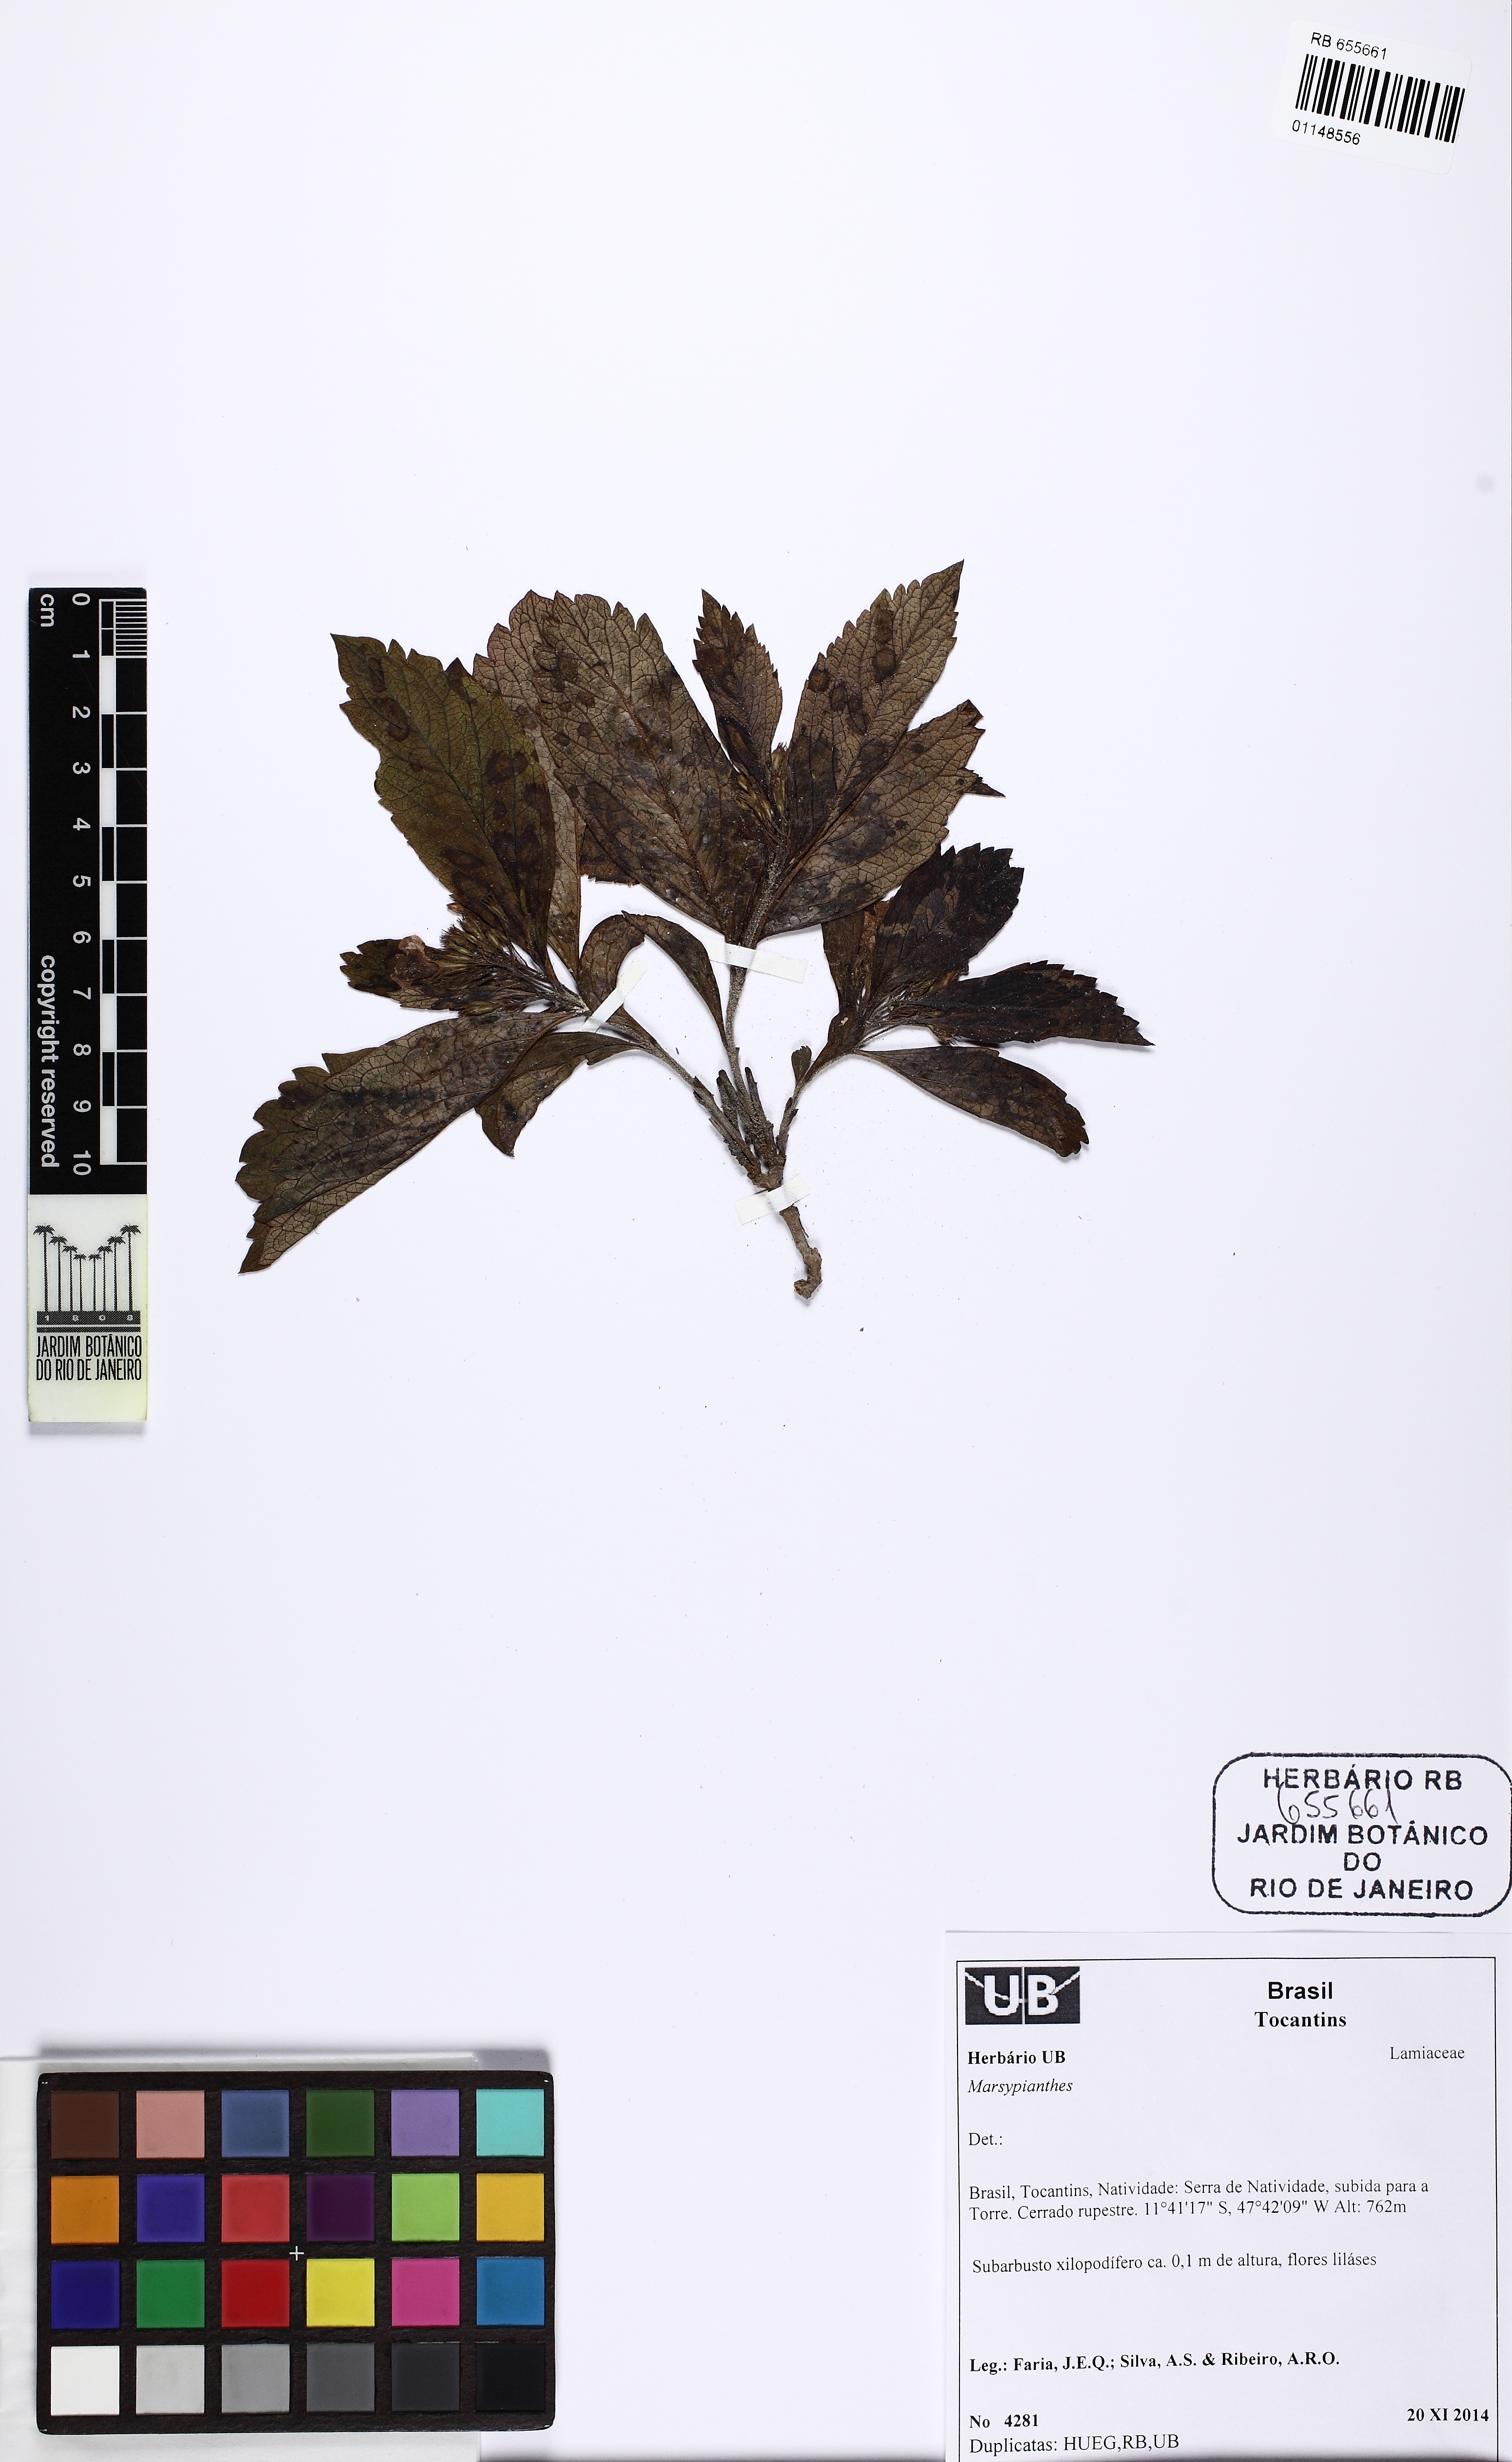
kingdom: Plantae
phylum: Tracheophyta
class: Magnoliopsida
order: Lamiales
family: Lamiaceae
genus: Marsypianthes
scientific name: Marsypianthes
